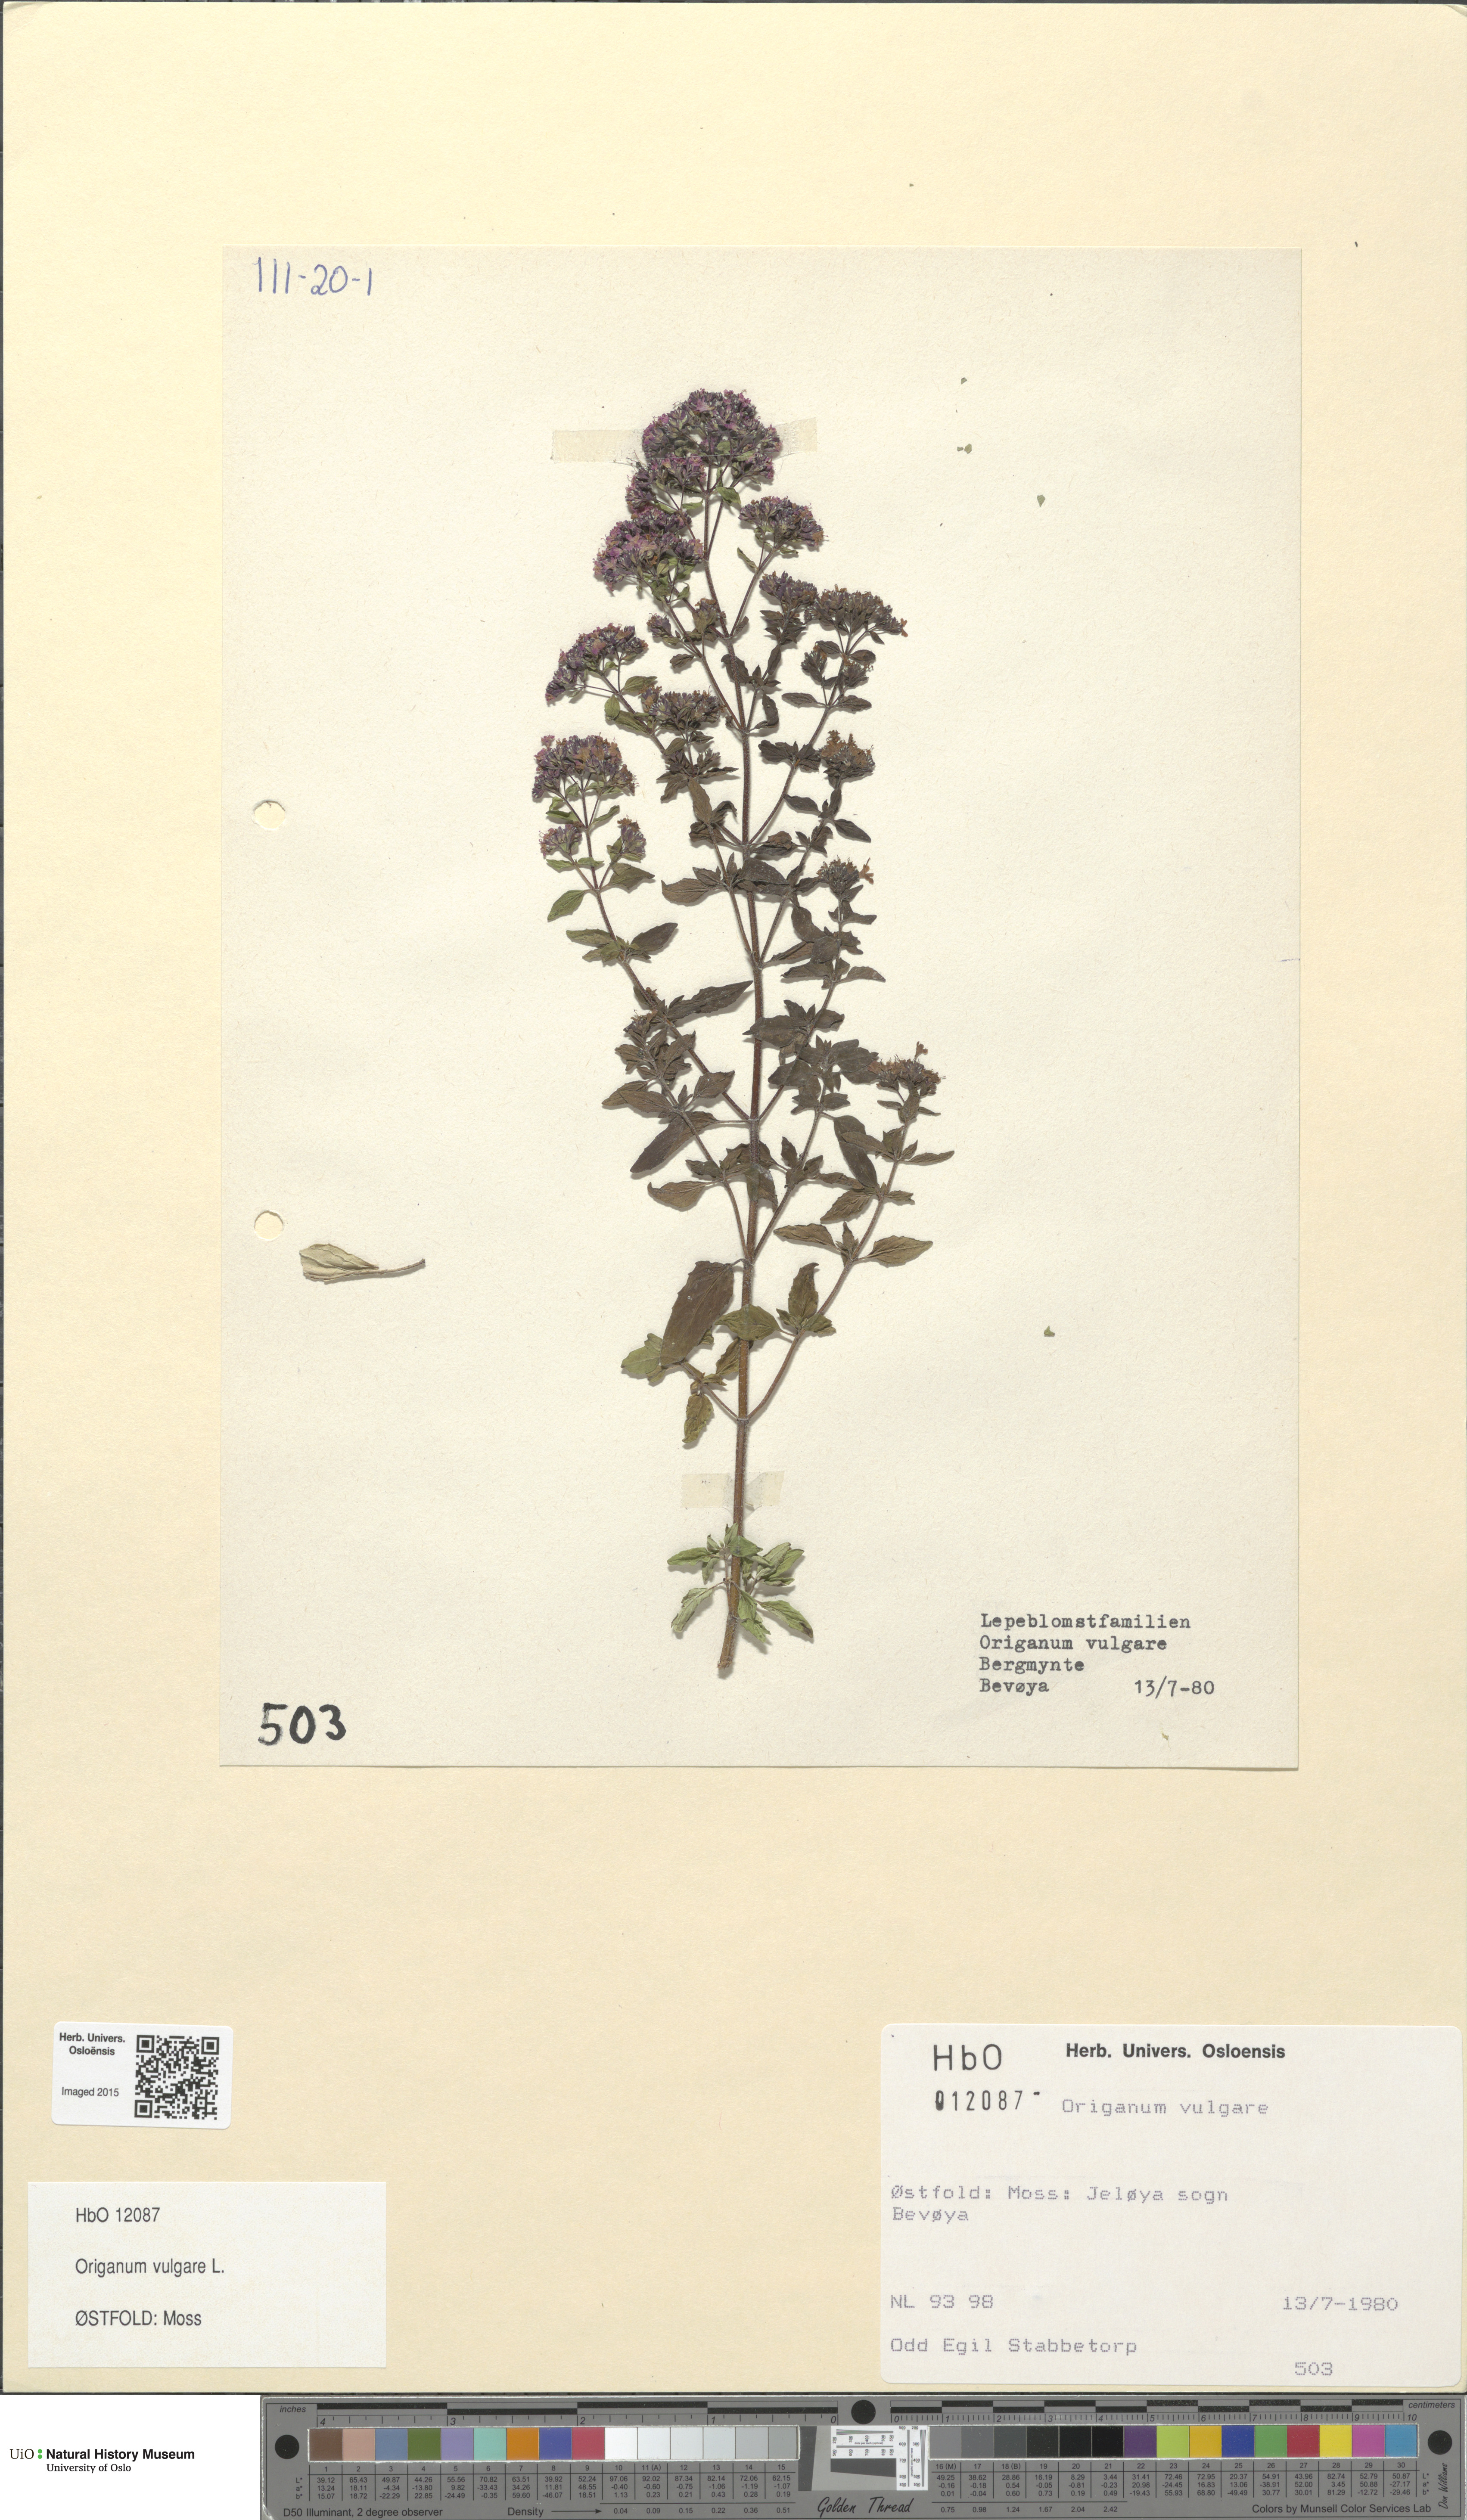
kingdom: Plantae
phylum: Tracheophyta
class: Magnoliopsida
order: Lamiales
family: Lamiaceae
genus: Origanum
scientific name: Origanum vulgare
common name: Wild marjoram
